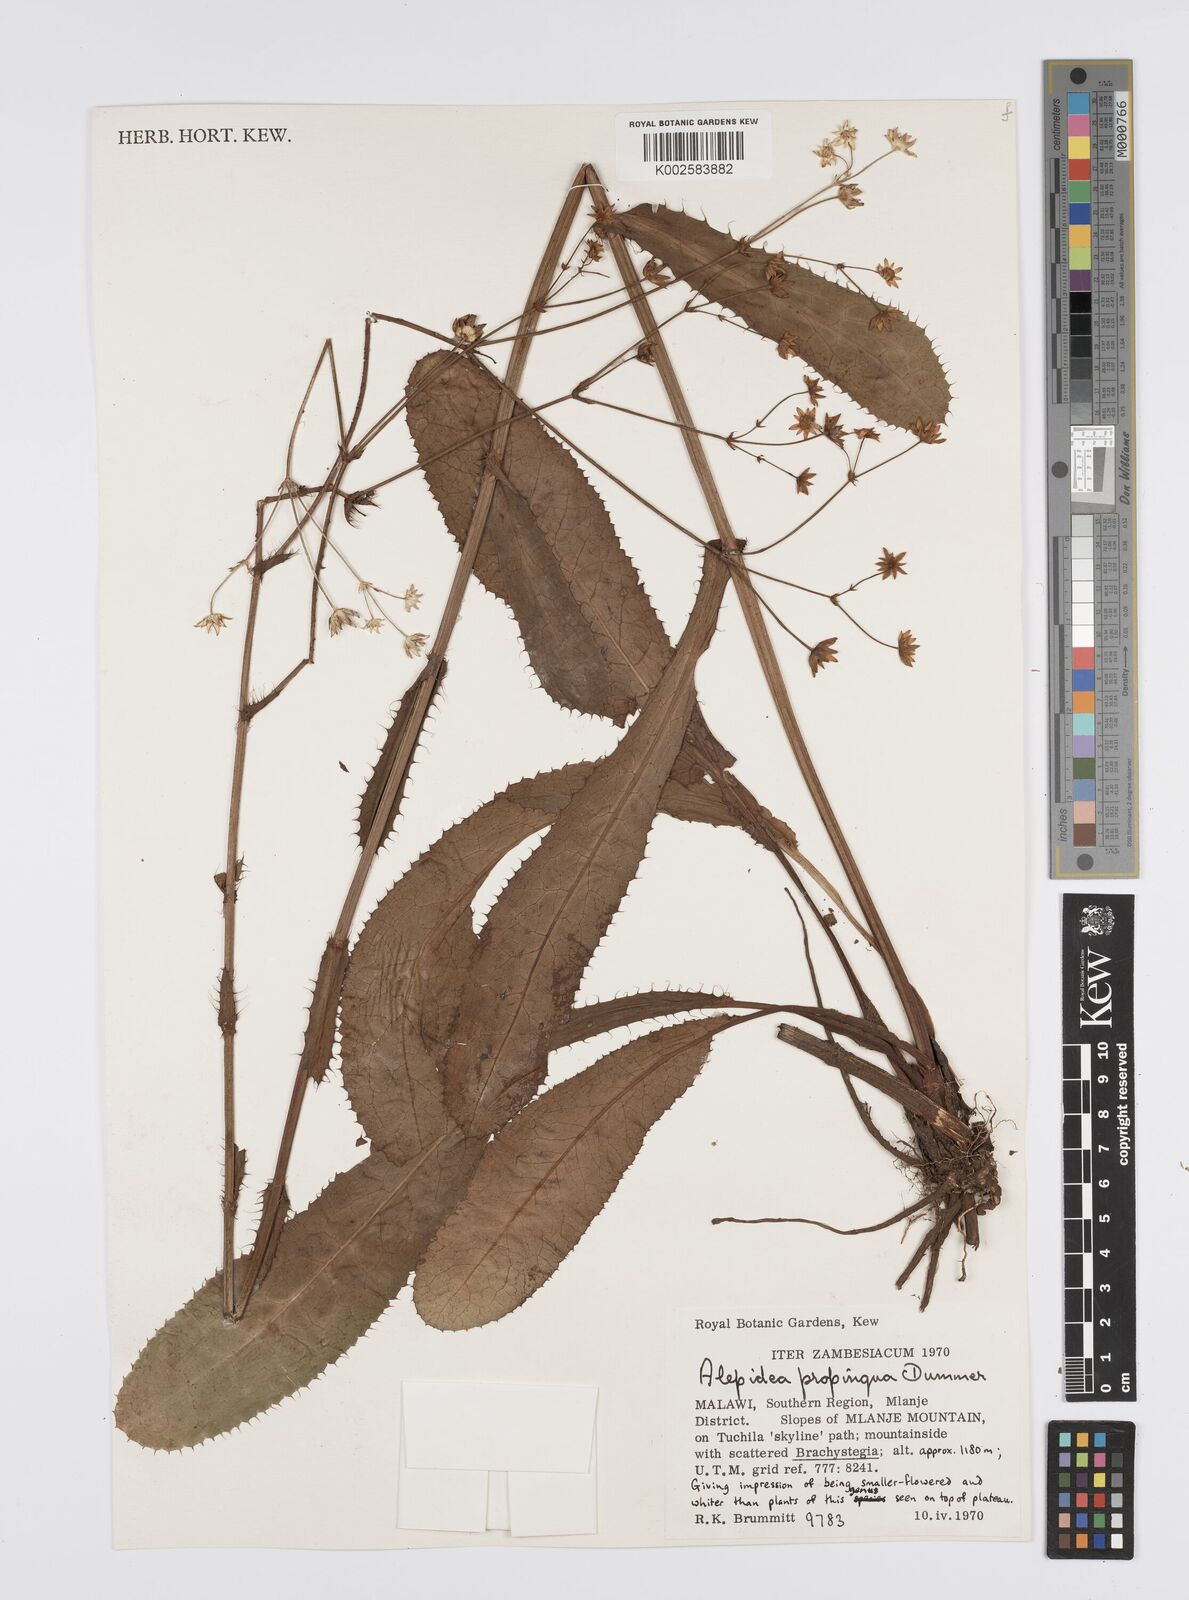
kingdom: Plantae
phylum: Tracheophyta
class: Magnoliopsida
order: Apiales
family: Apiaceae
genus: Alepidea
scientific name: Alepidea
